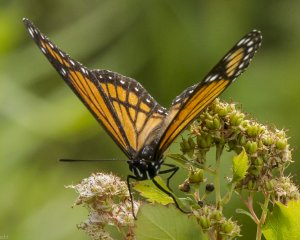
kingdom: Animalia
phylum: Arthropoda
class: Insecta
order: Lepidoptera
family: Nymphalidae
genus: Limenitis
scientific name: Limenitis archippus
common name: Viceroy
